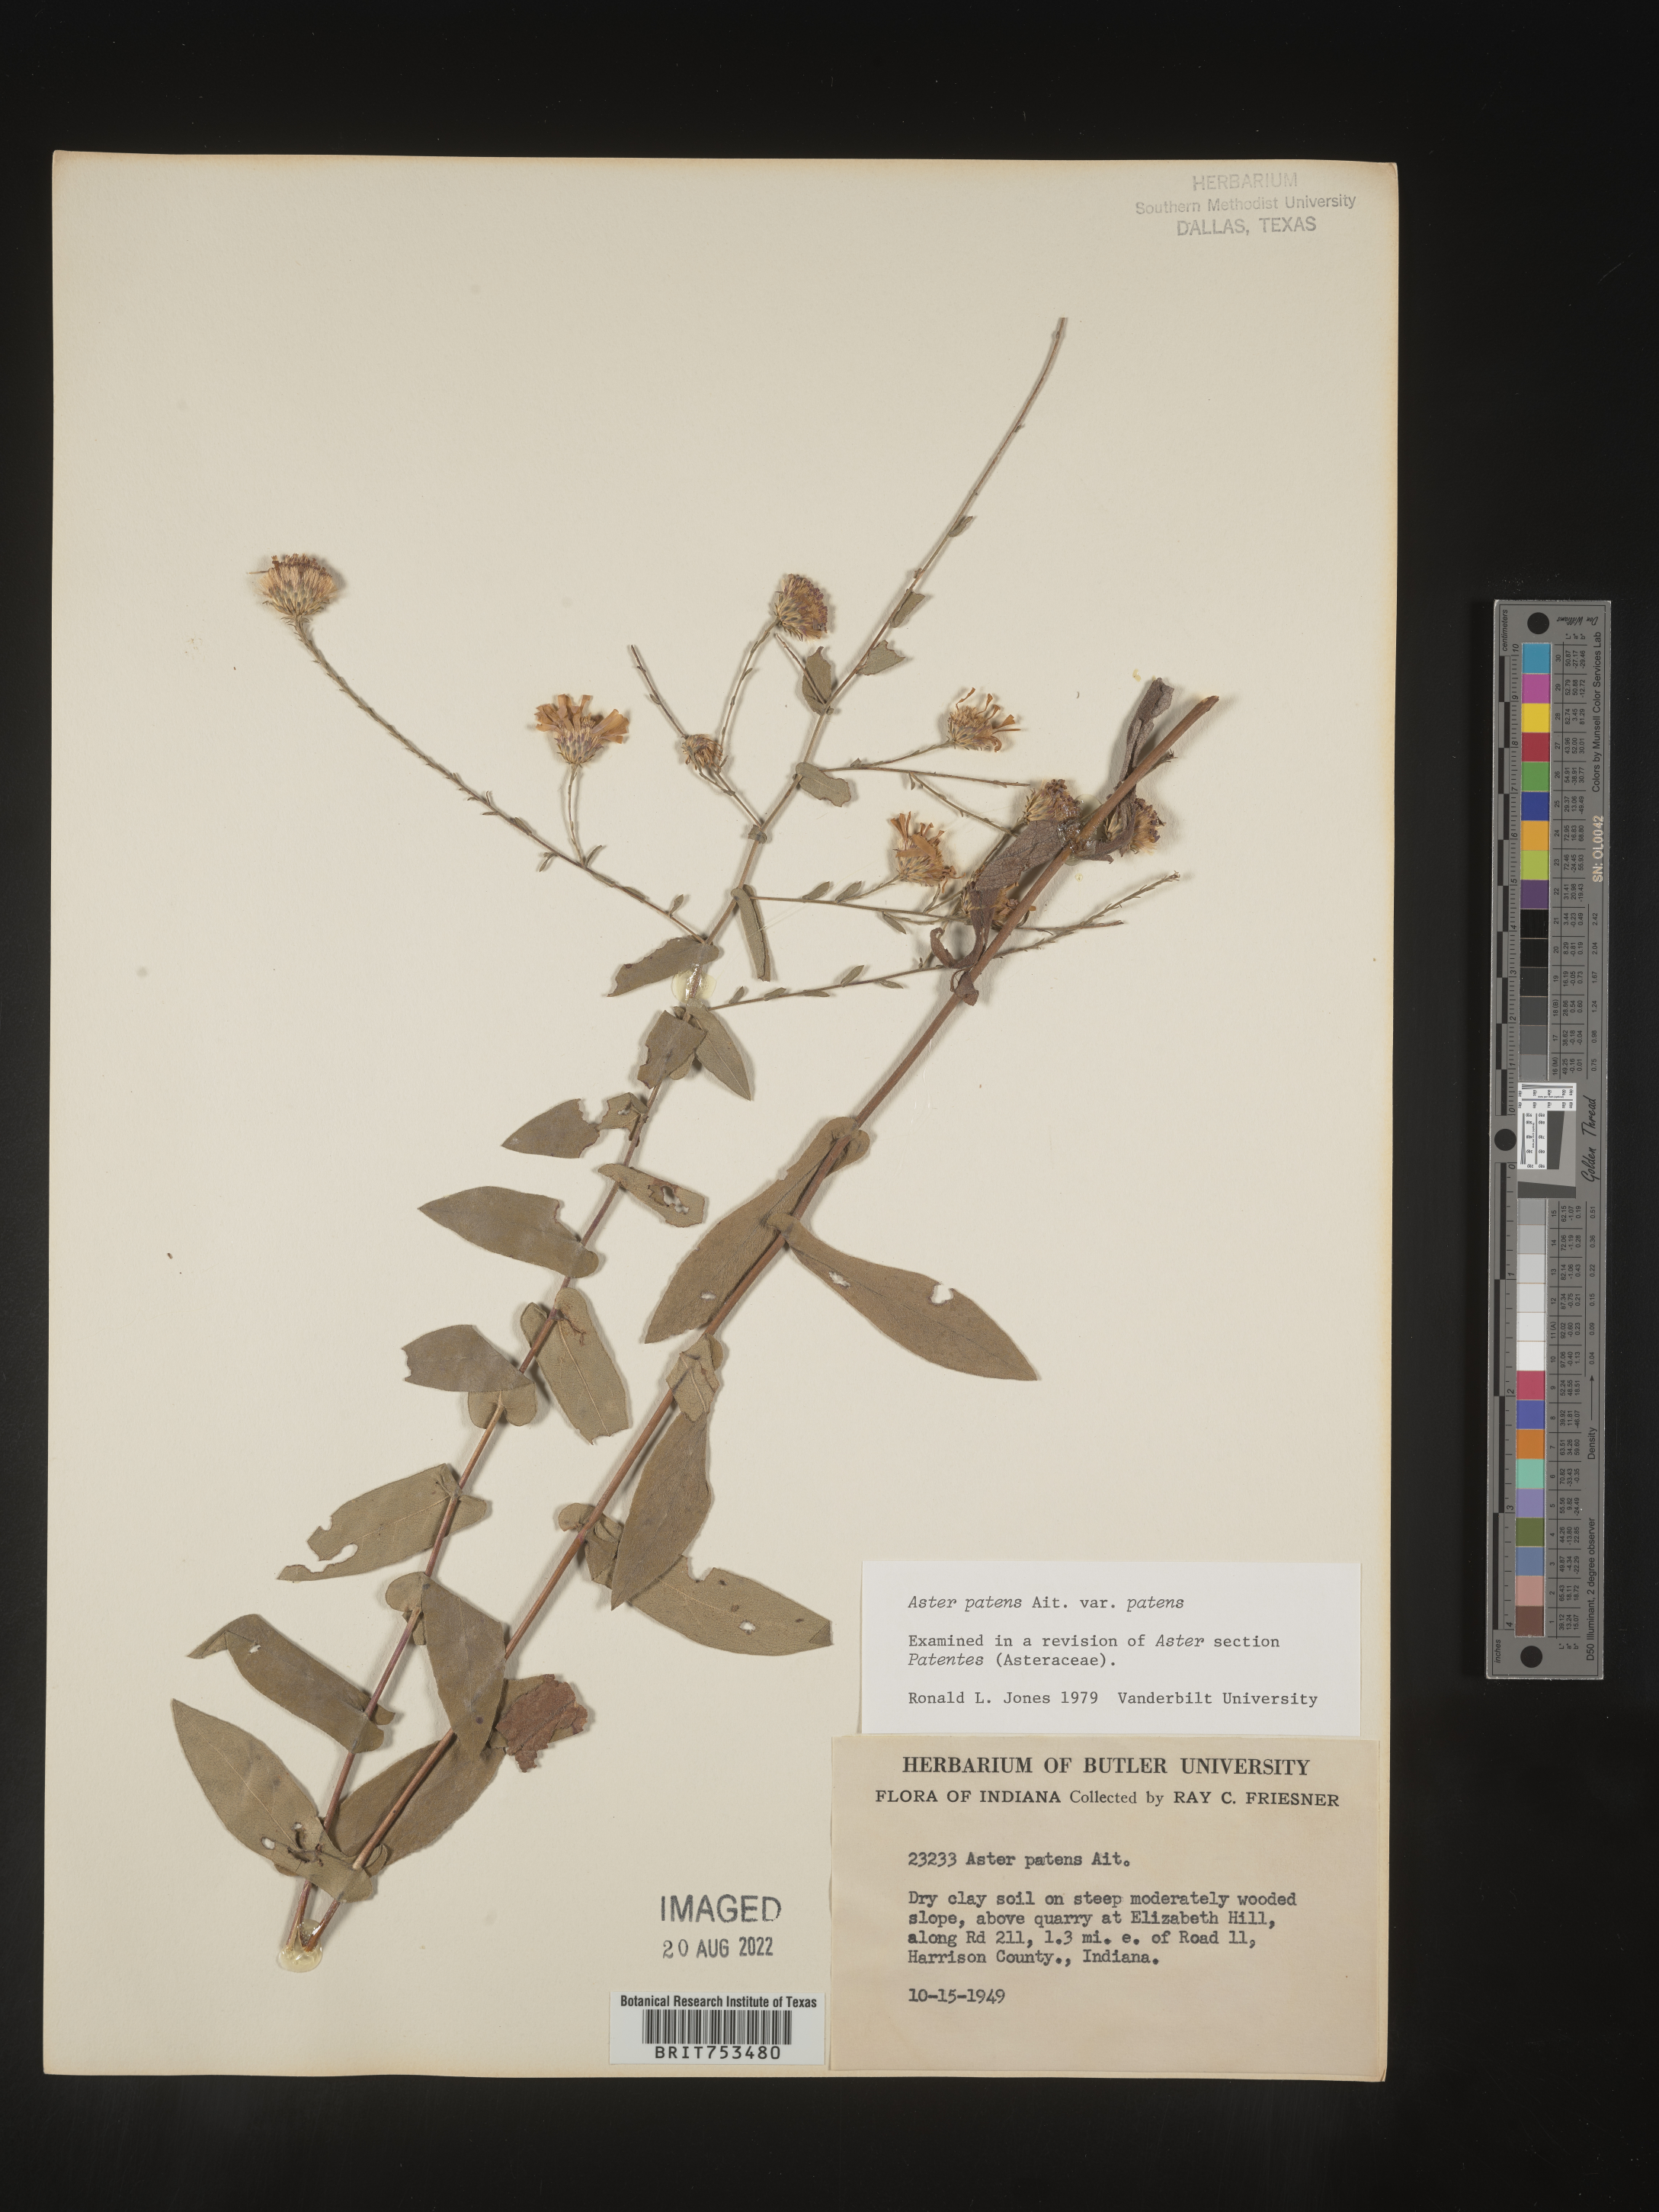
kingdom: Plantae
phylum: Tracheophyta
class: Magnoliopsida
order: Asterales
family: Asteraceae
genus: Symphyotrichum
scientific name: Symphyotrichum patens
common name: Late purple aster
